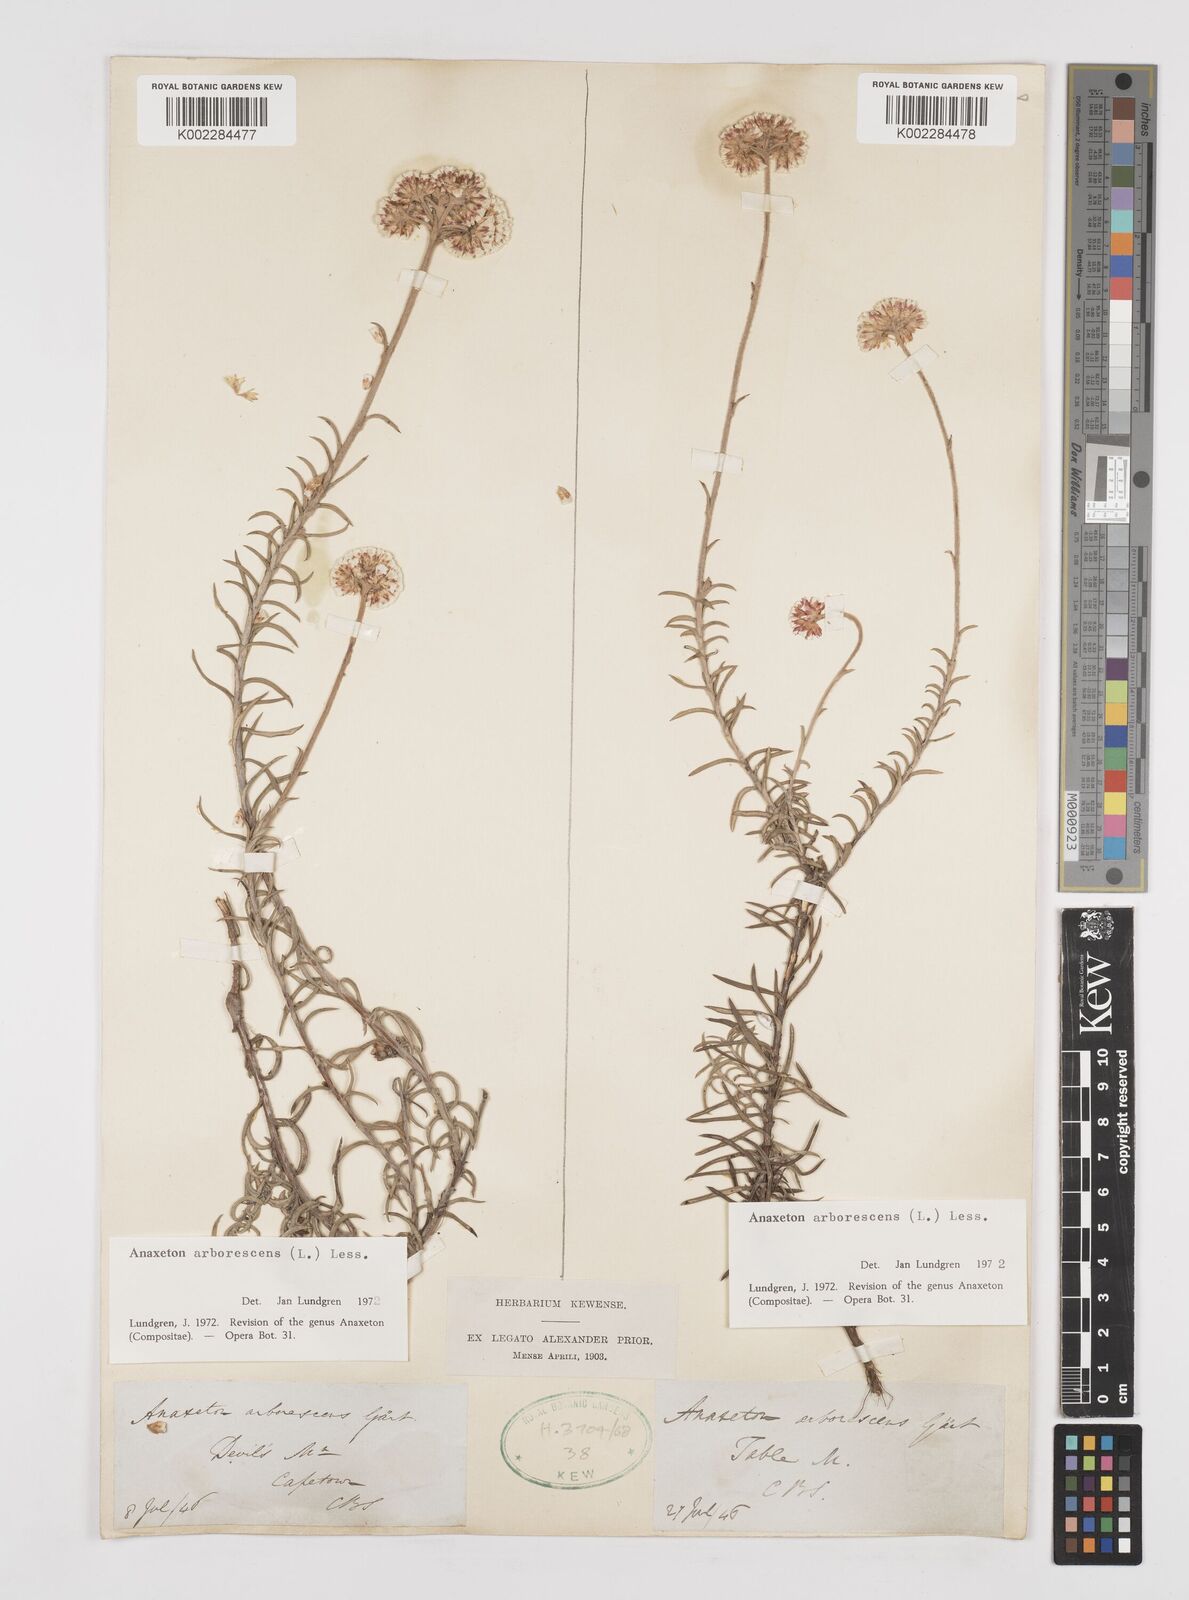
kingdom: Plantae
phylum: Tracheophyta
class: Magnoliopsida
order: Asterales
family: Asteraceae
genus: Anaxeton
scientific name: Anaxeton arborescens
